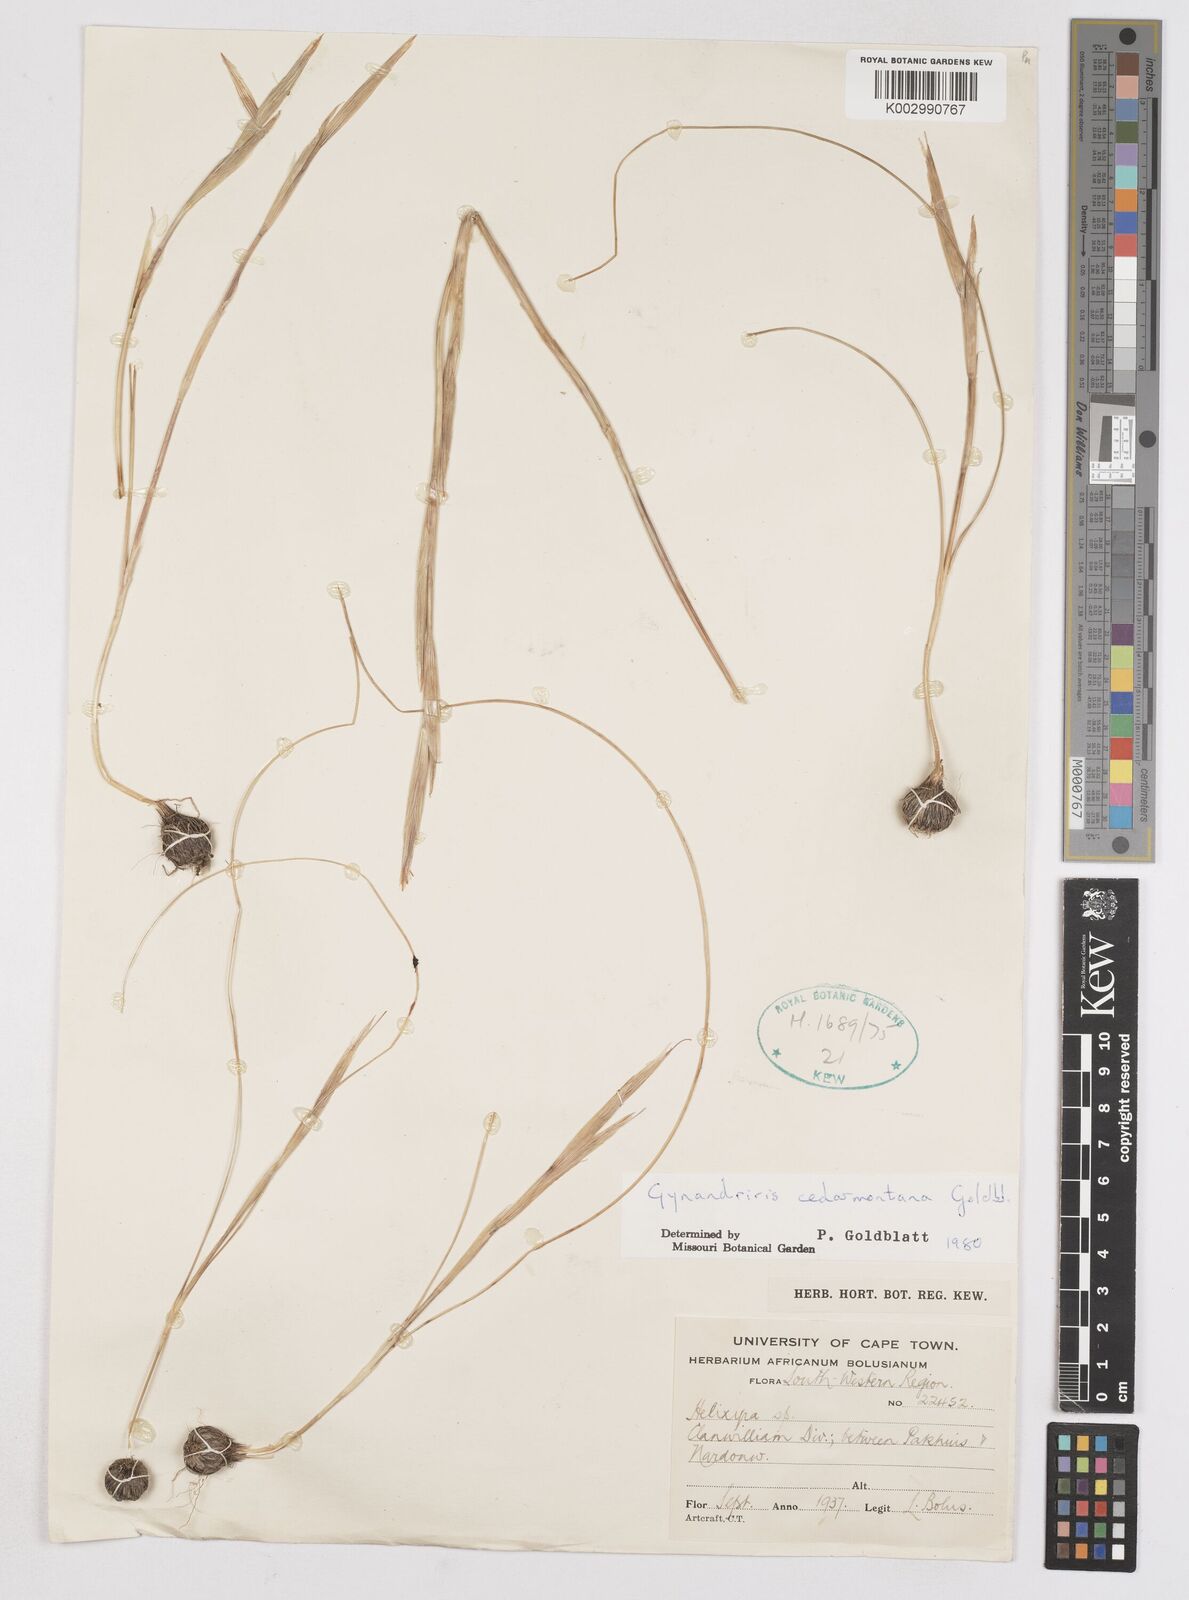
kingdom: Plantae
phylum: Tracheophyta
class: Liliopsida
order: Asparagales
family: Iridaceae
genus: Moraea
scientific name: Moraea cedarmontana
